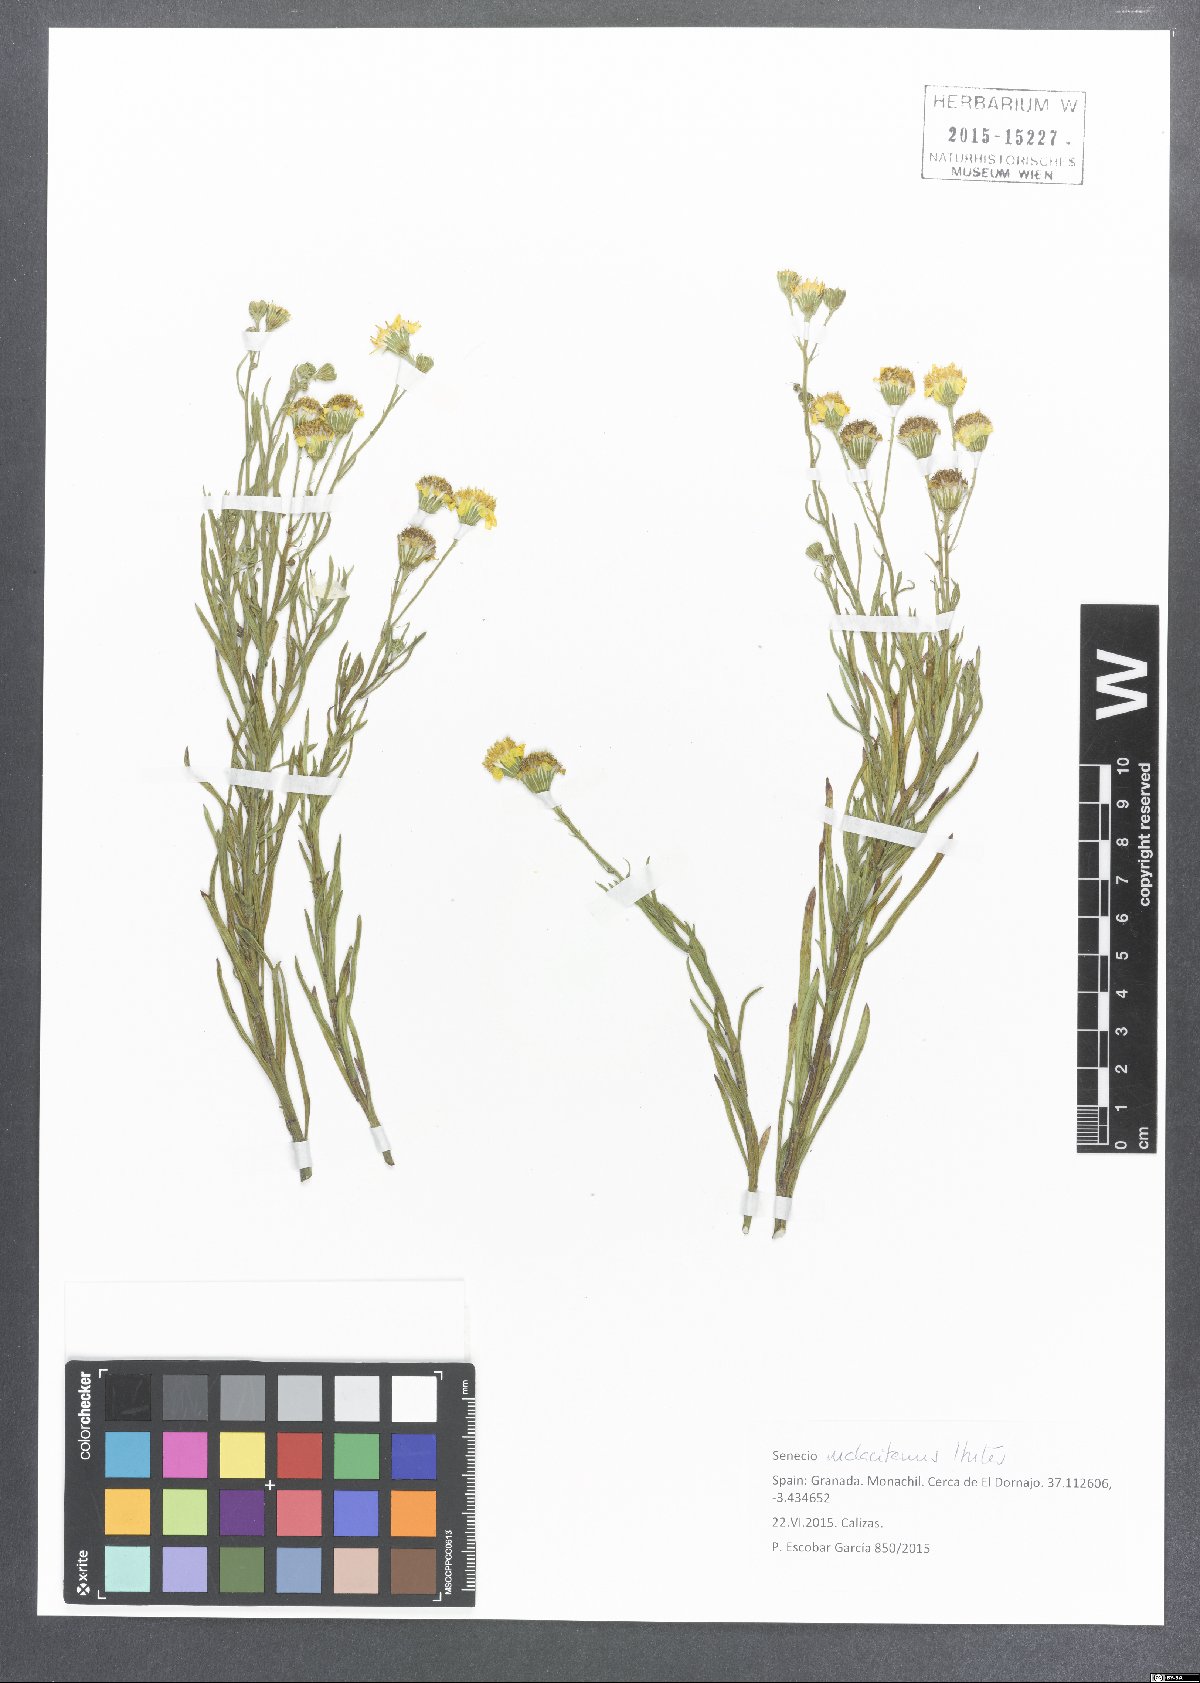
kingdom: Plantae
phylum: Tracheophyta
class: Magnoliopsida
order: Asterales
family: Asteraceae
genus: Senecio
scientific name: Senecio malacitanus
